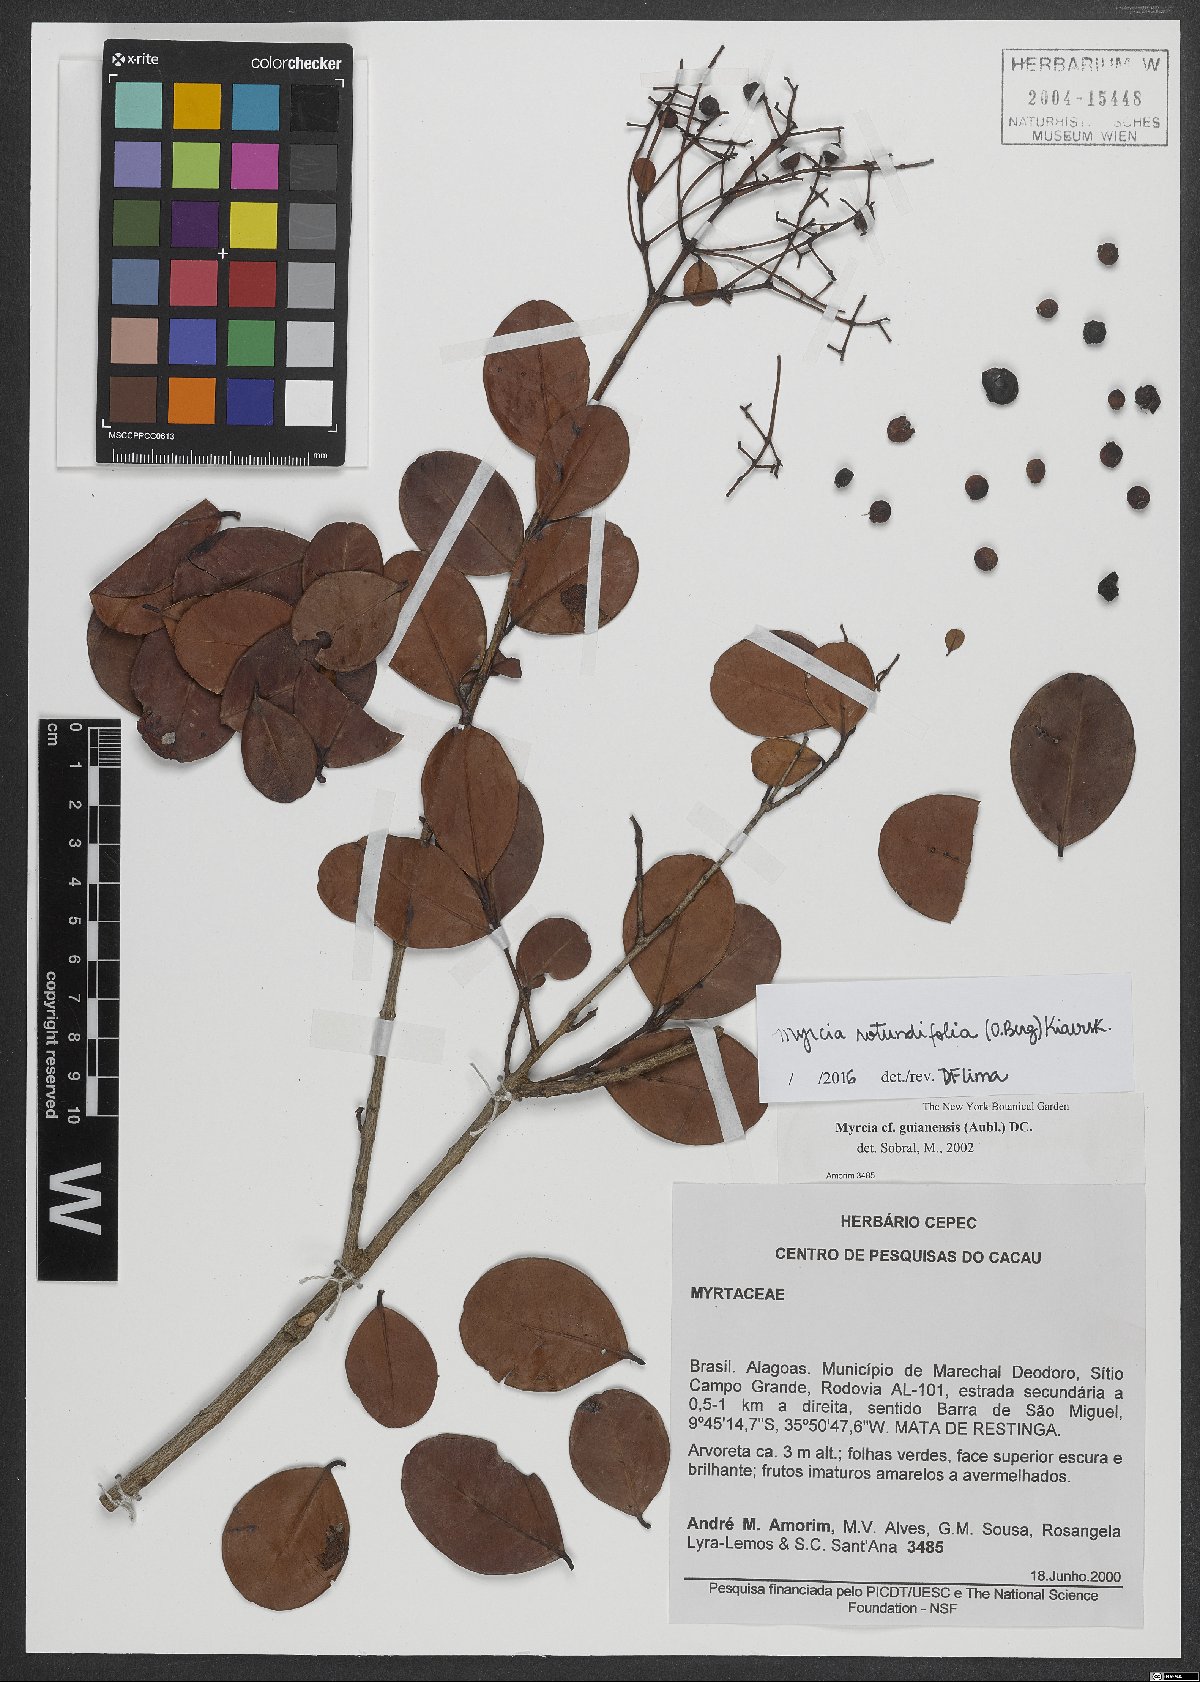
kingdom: Plantae
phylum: Tracheophyta
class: Magnoliopsida
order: Myrtales
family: Myrtaceae
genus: Myrcia
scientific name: Myrcia rotundifolia
